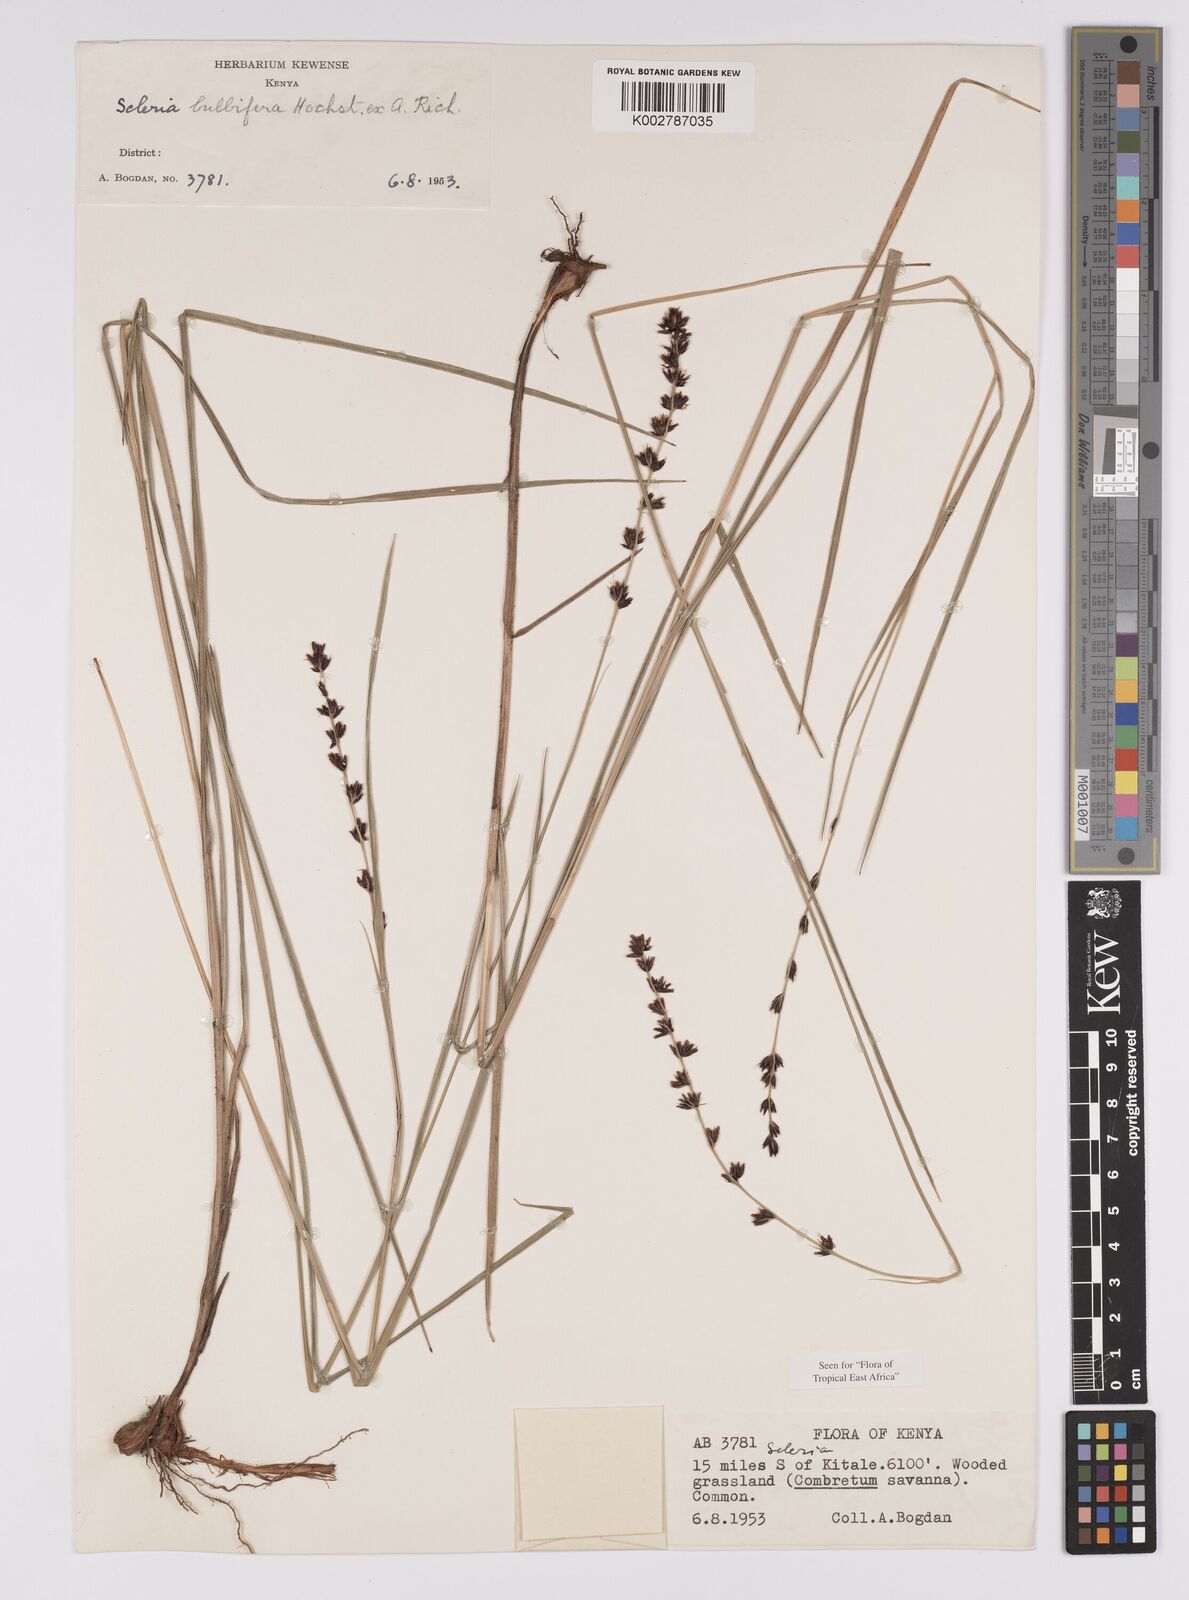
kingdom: Plantae
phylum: Tracheophyta
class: Liliopsida
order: Poales
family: Cyperaceae
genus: Scleria
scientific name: Scleria bulbifera
